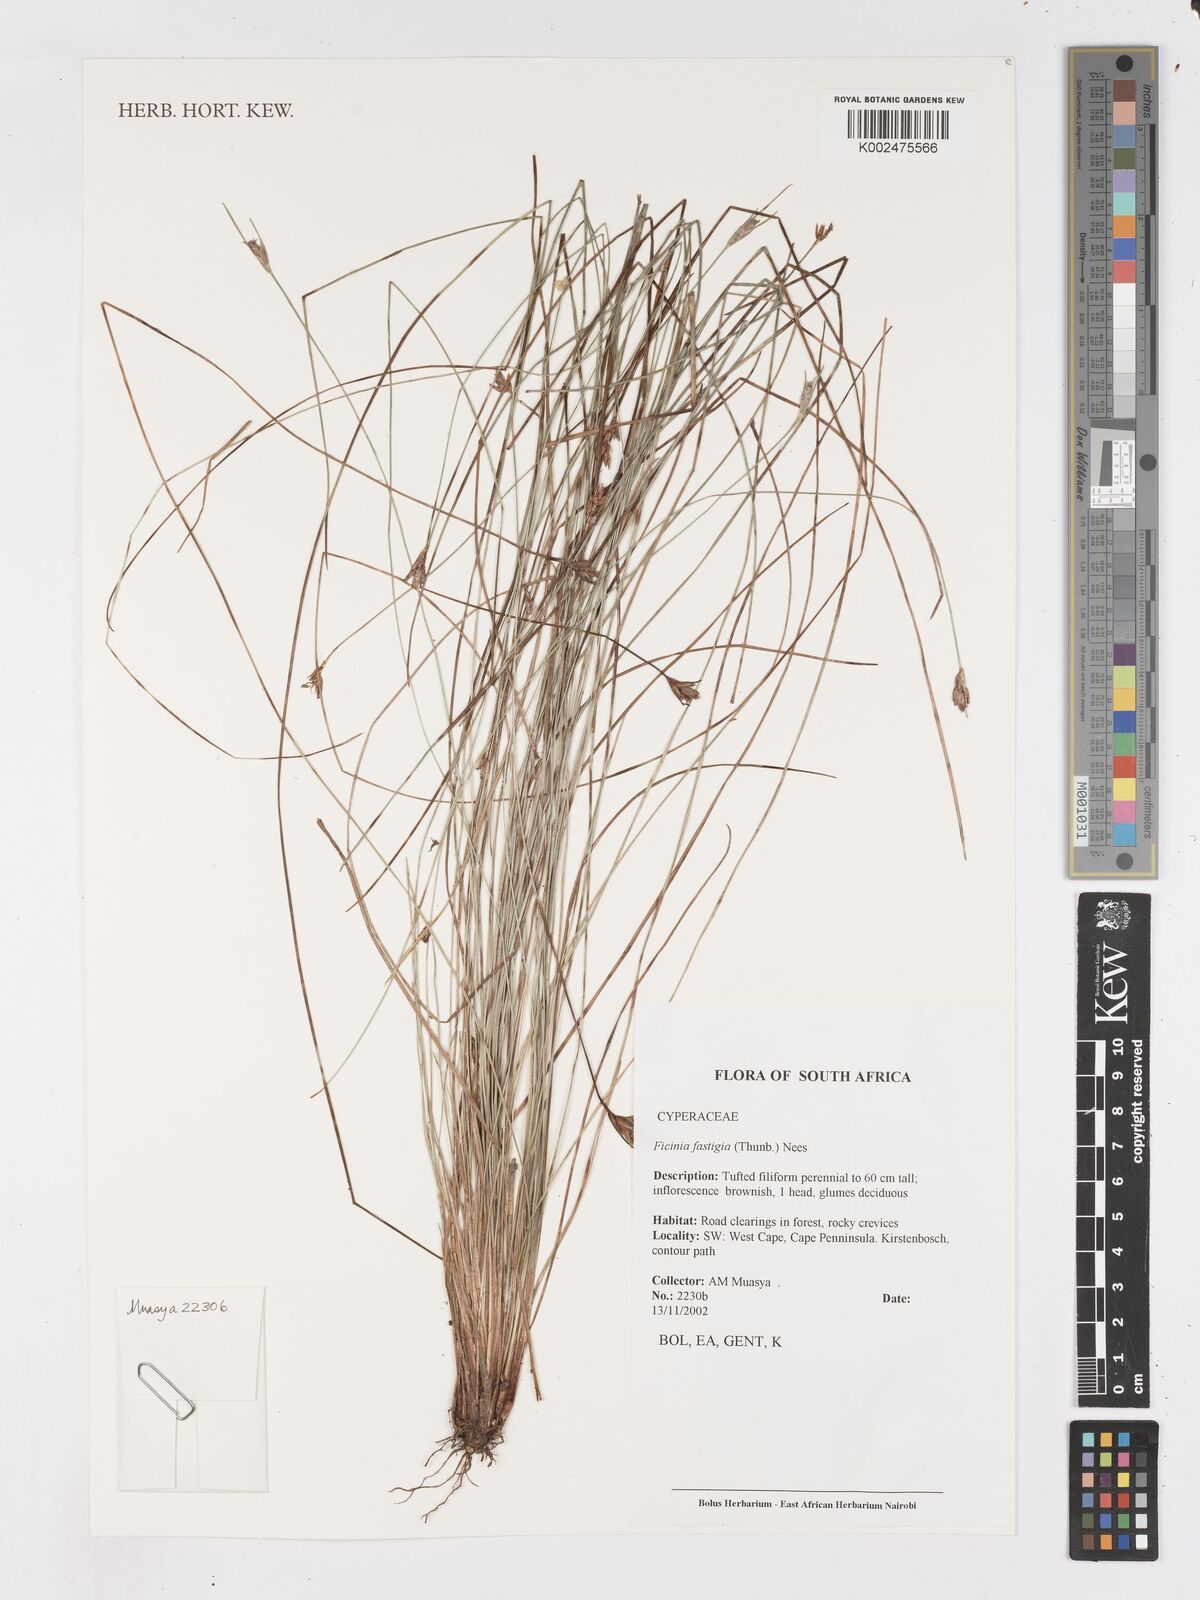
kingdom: Plantae
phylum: Tracheophyta
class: Liliopsida
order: Poales
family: Cyperaceae
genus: Ficinia
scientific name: Ficinia fastigiata
